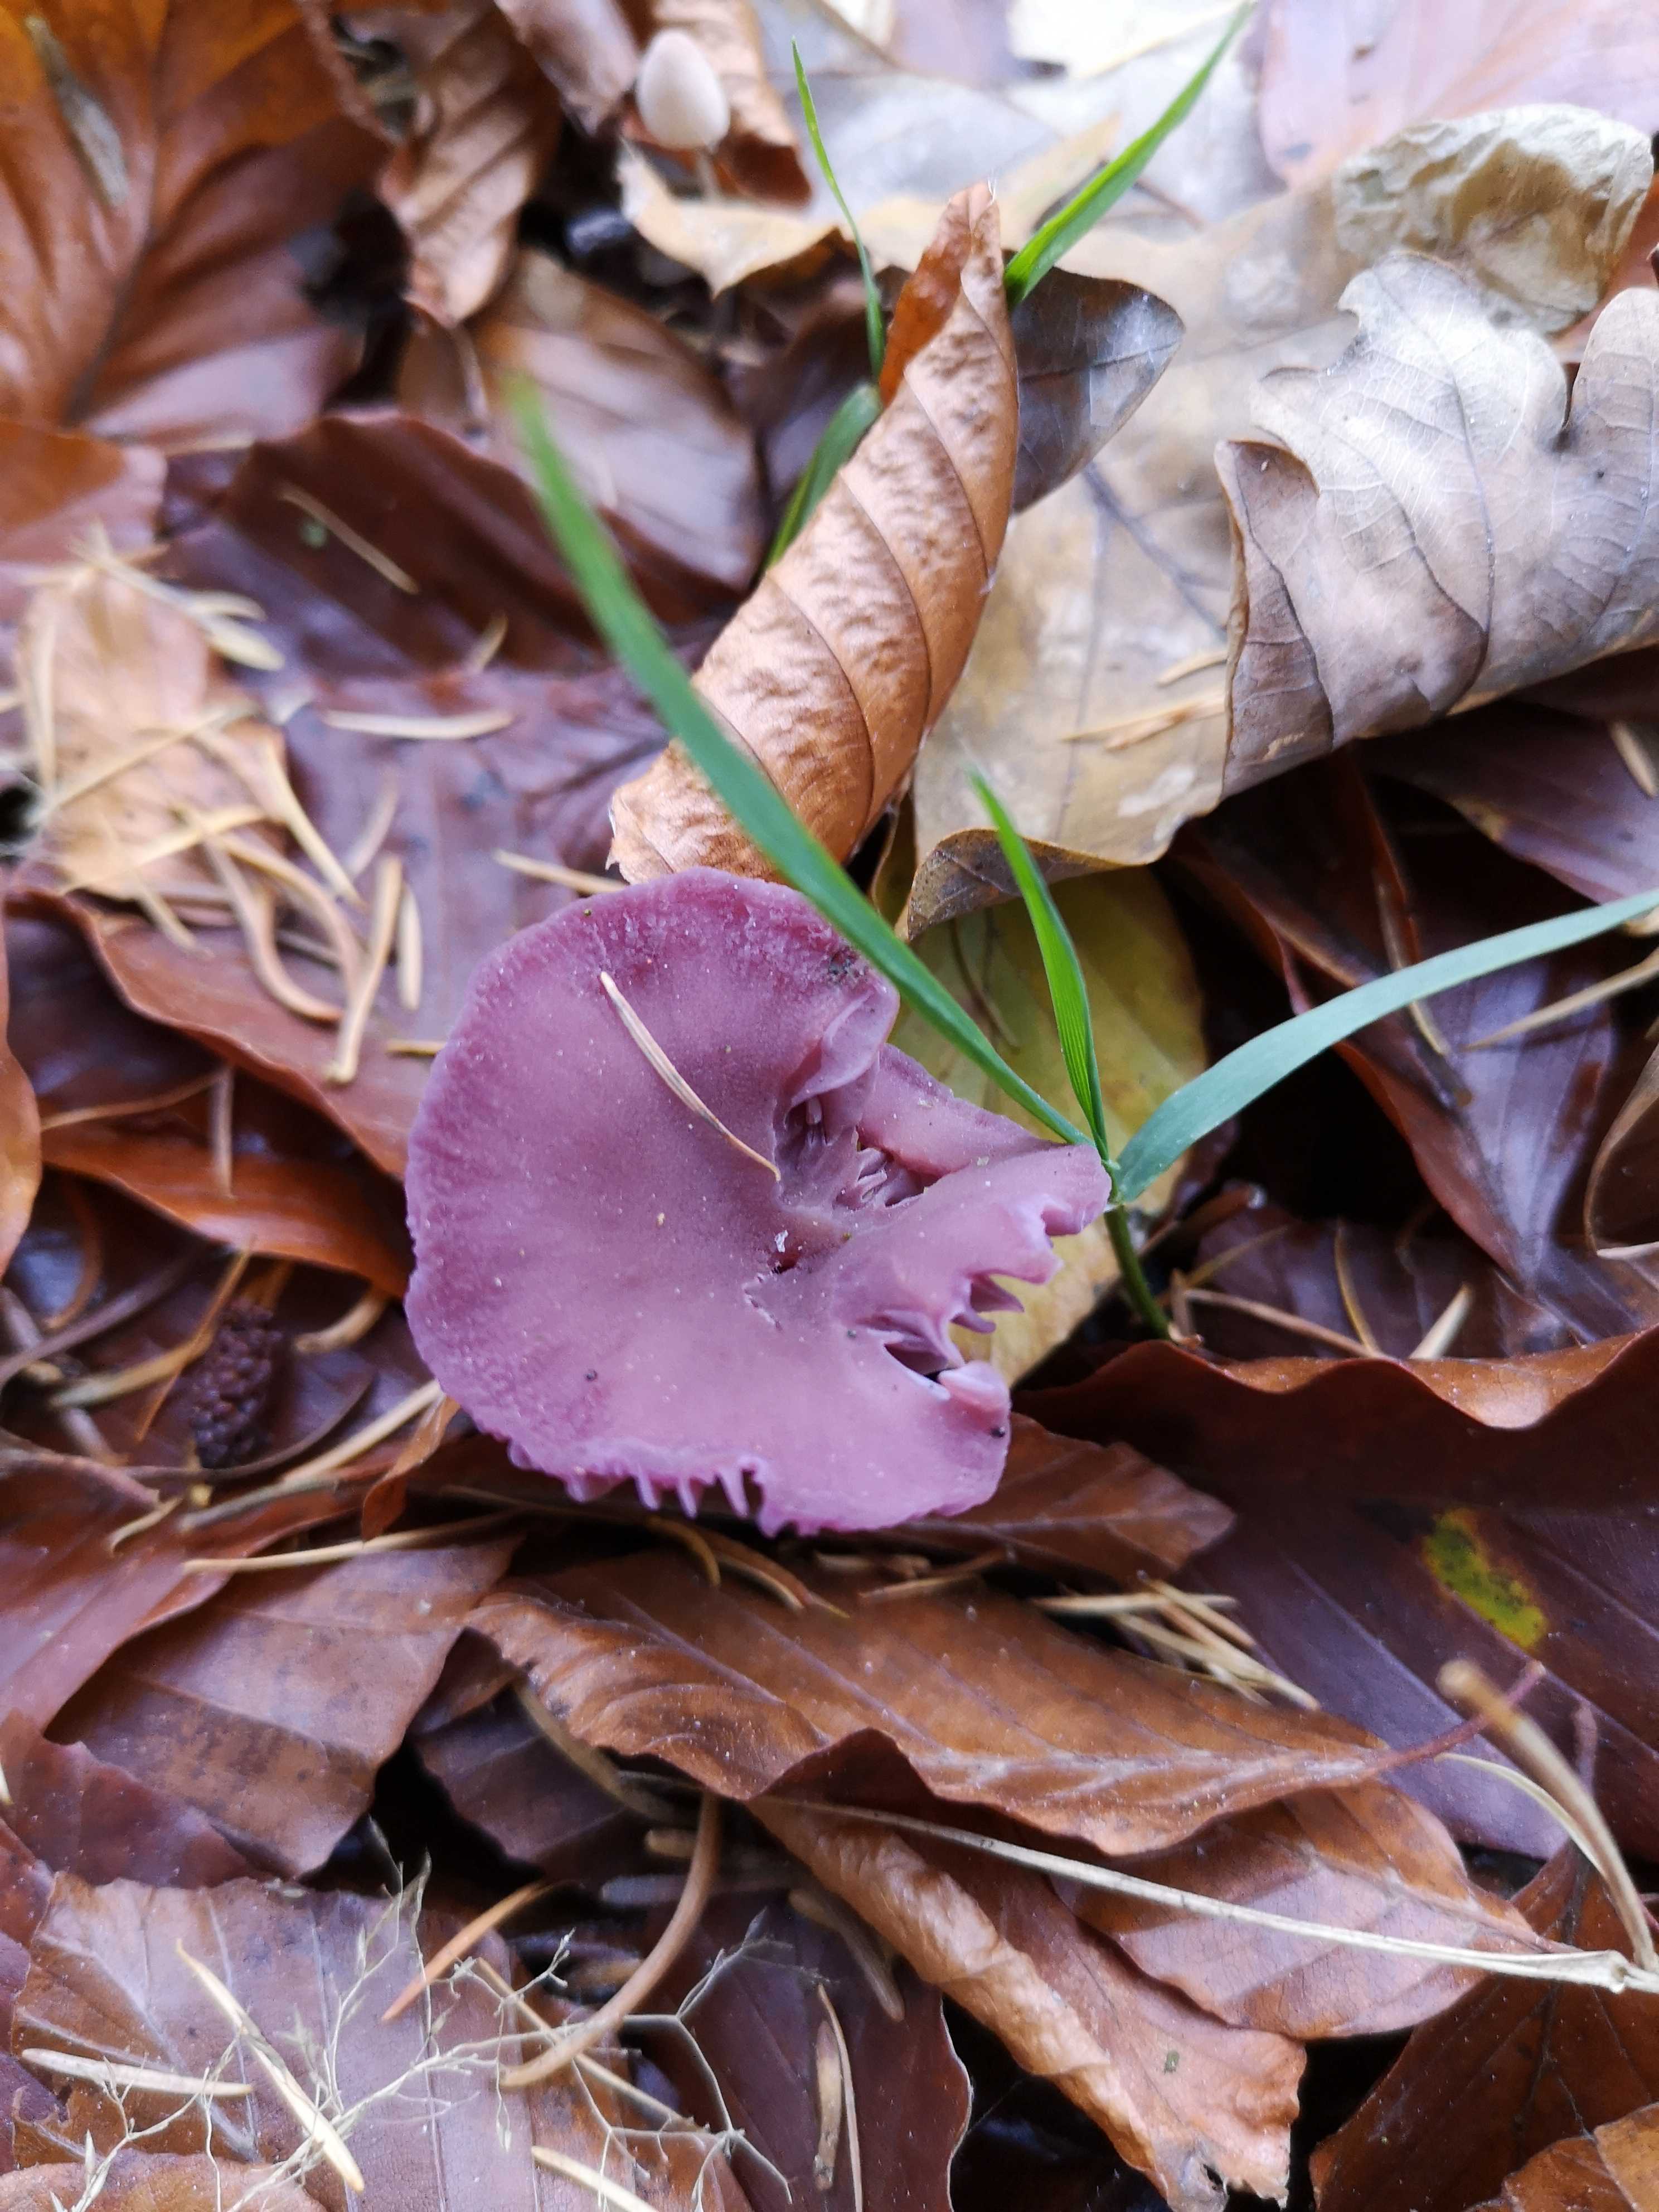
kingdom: Fungi
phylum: Basidiomycota
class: Agaricomycetes
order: Agaricales
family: Hydnangiaceae
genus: Laccaria
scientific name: Laccaria amethystina
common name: violet ametysthat
